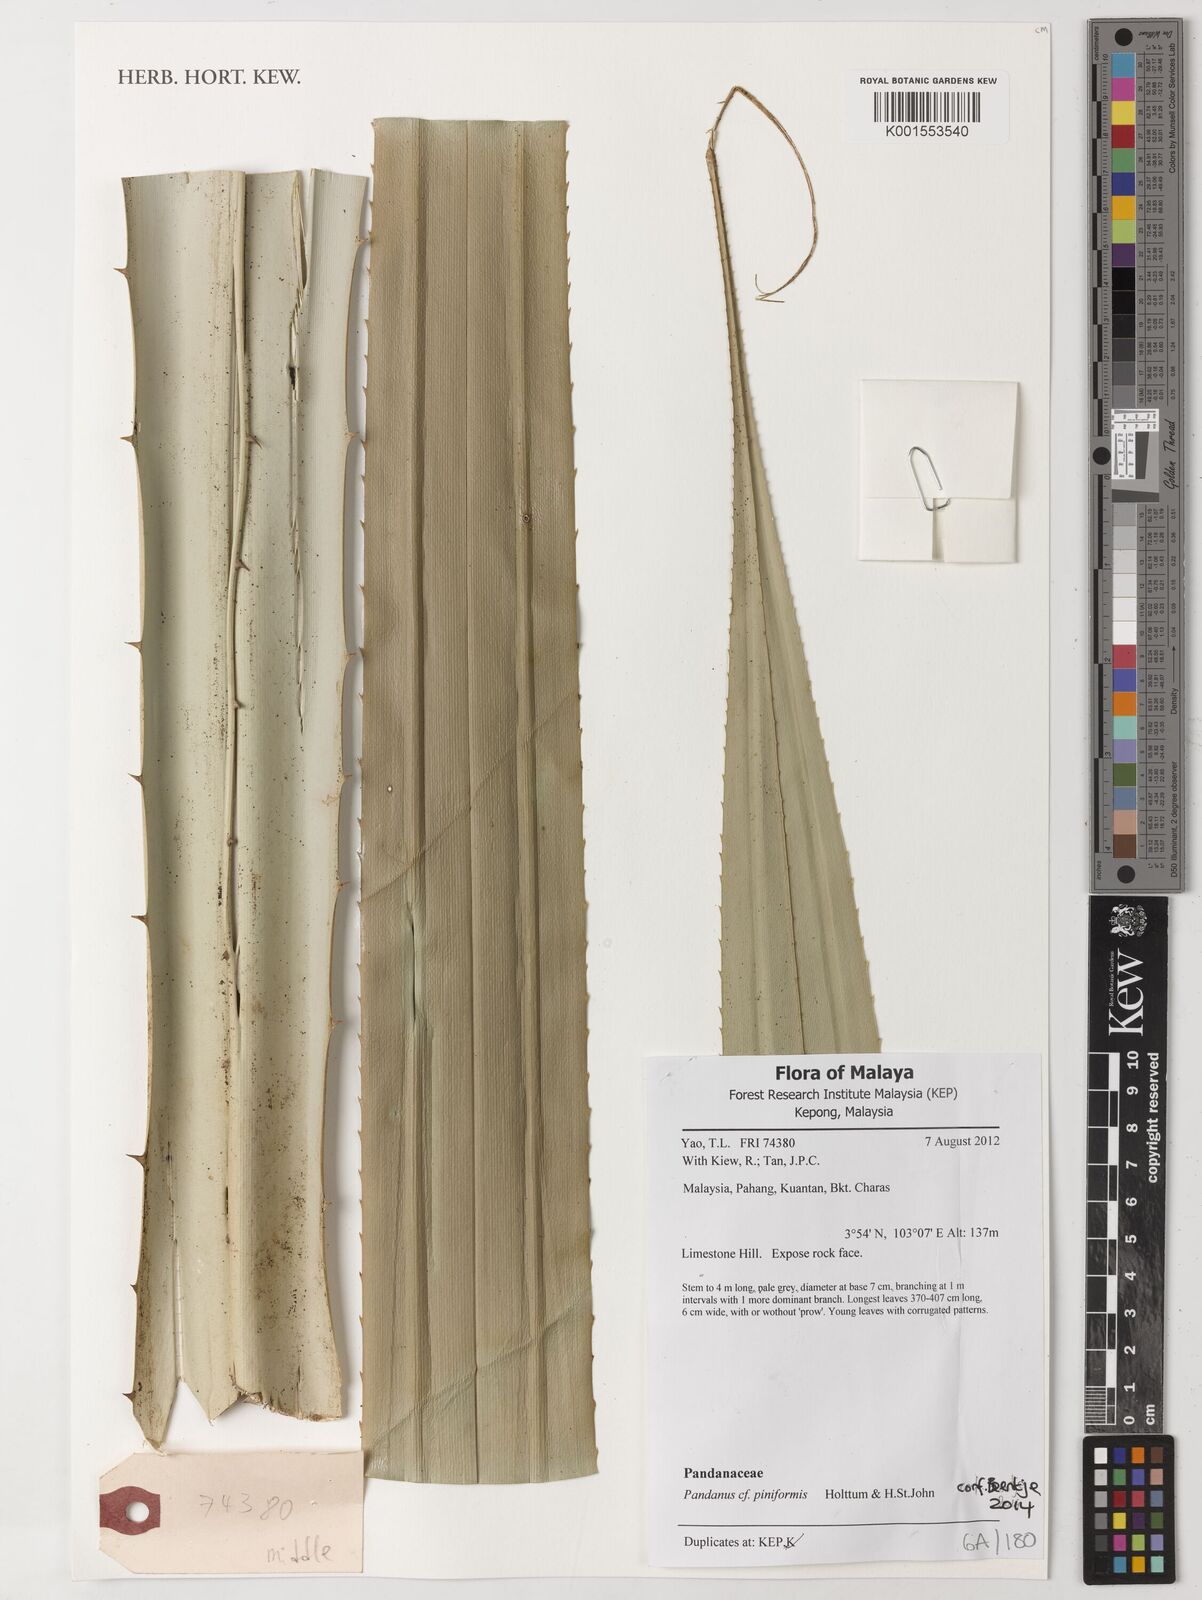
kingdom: Plantae
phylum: Tracheophyta
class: Liliopsida
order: Pandanales
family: Pandanaceae
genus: Pandanus
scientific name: Pandanus piniformis
